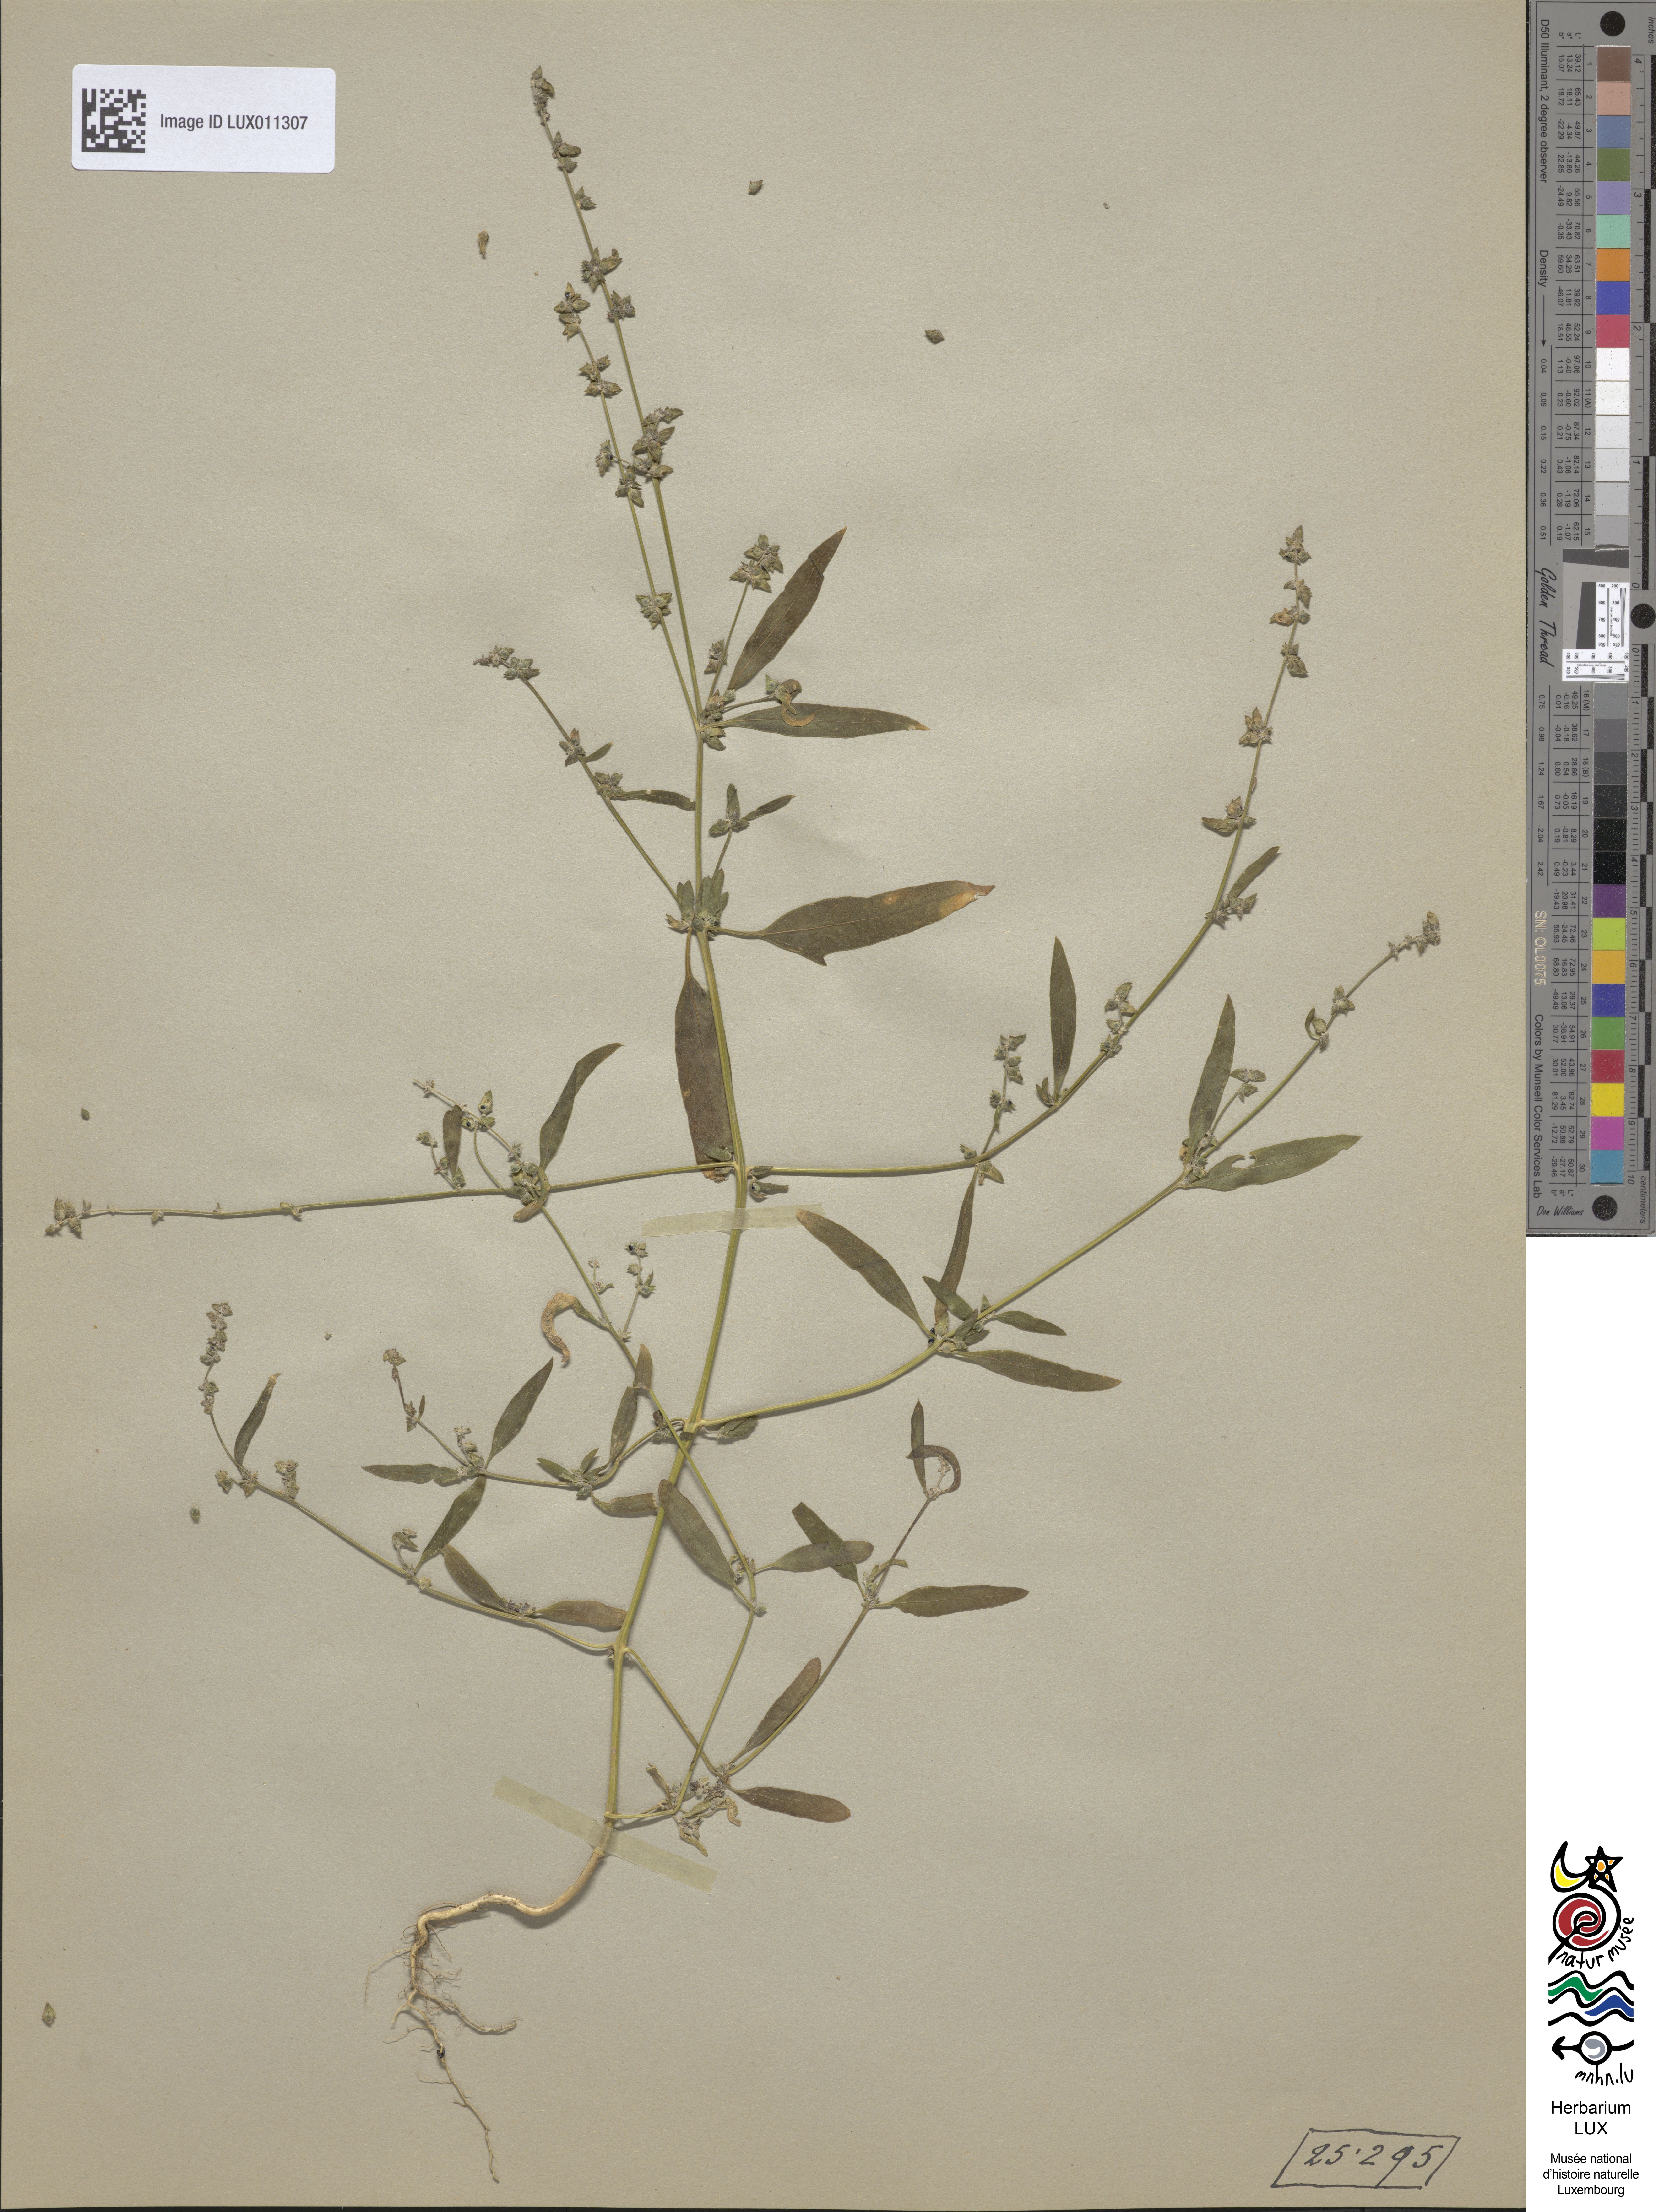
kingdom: Plantae
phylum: Tracheophyta
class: Magnoliopsida
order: Caryophyllales
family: Amaranthaceae
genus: Atriplex
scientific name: Atriplex patula
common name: Common orache
